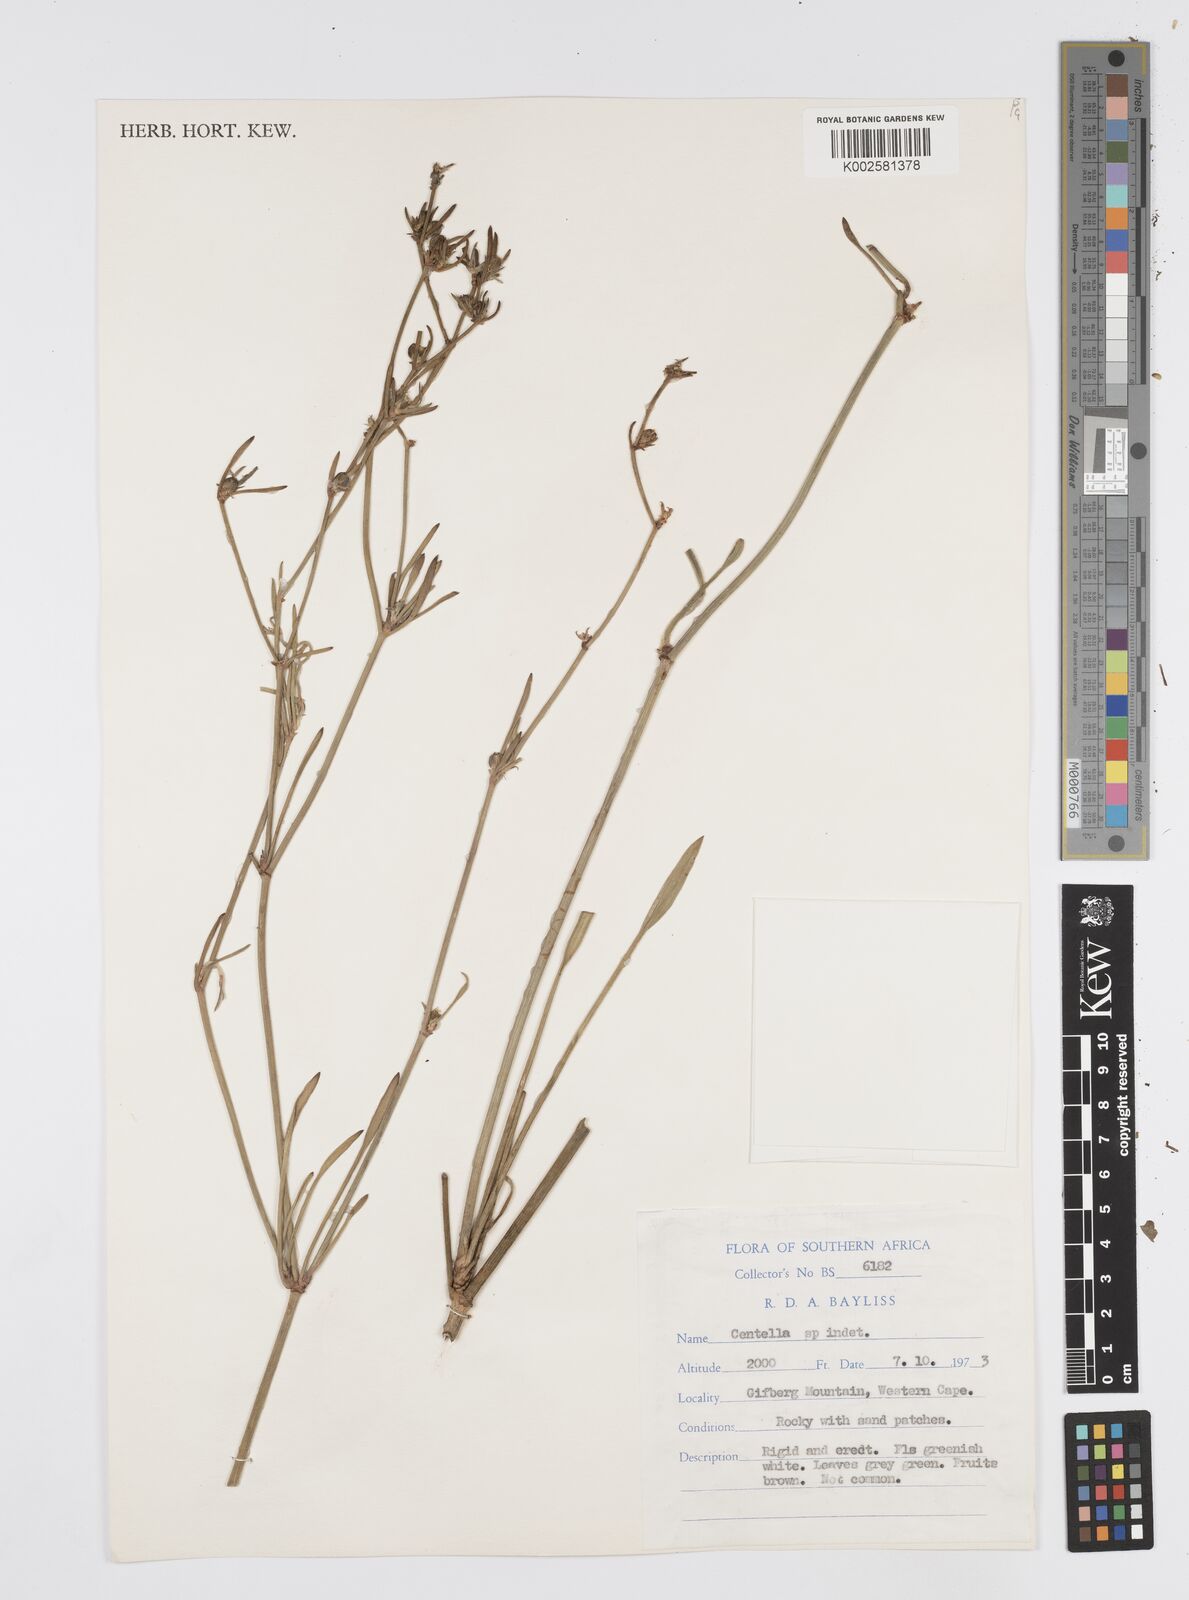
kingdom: Plantae
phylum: Tracheophyta
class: Magnoliopsida
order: Apiales
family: Apiaceae
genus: Centella
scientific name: Centella
